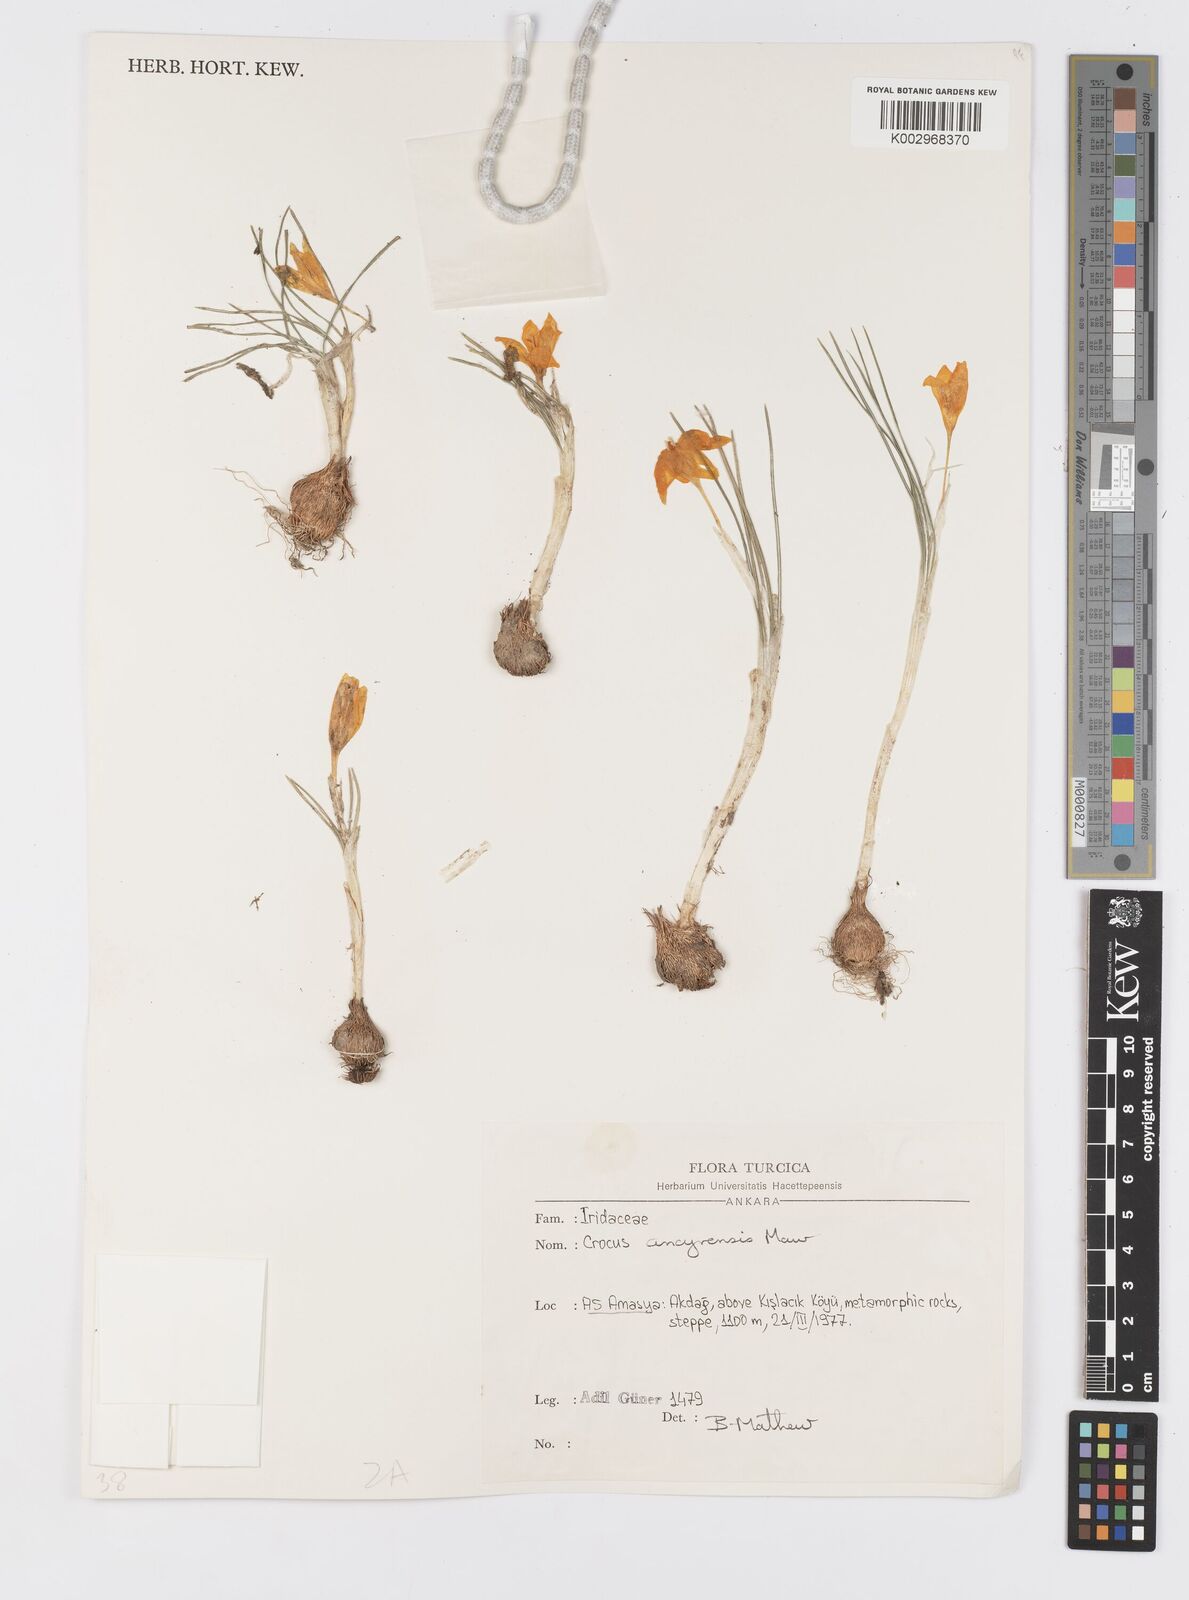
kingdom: Plantae
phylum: Tracheophyta
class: Liliopsida
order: Asparagales
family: Iridaceae
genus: Crocus
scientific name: Crocus ancyrensis
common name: Ankara crocus
